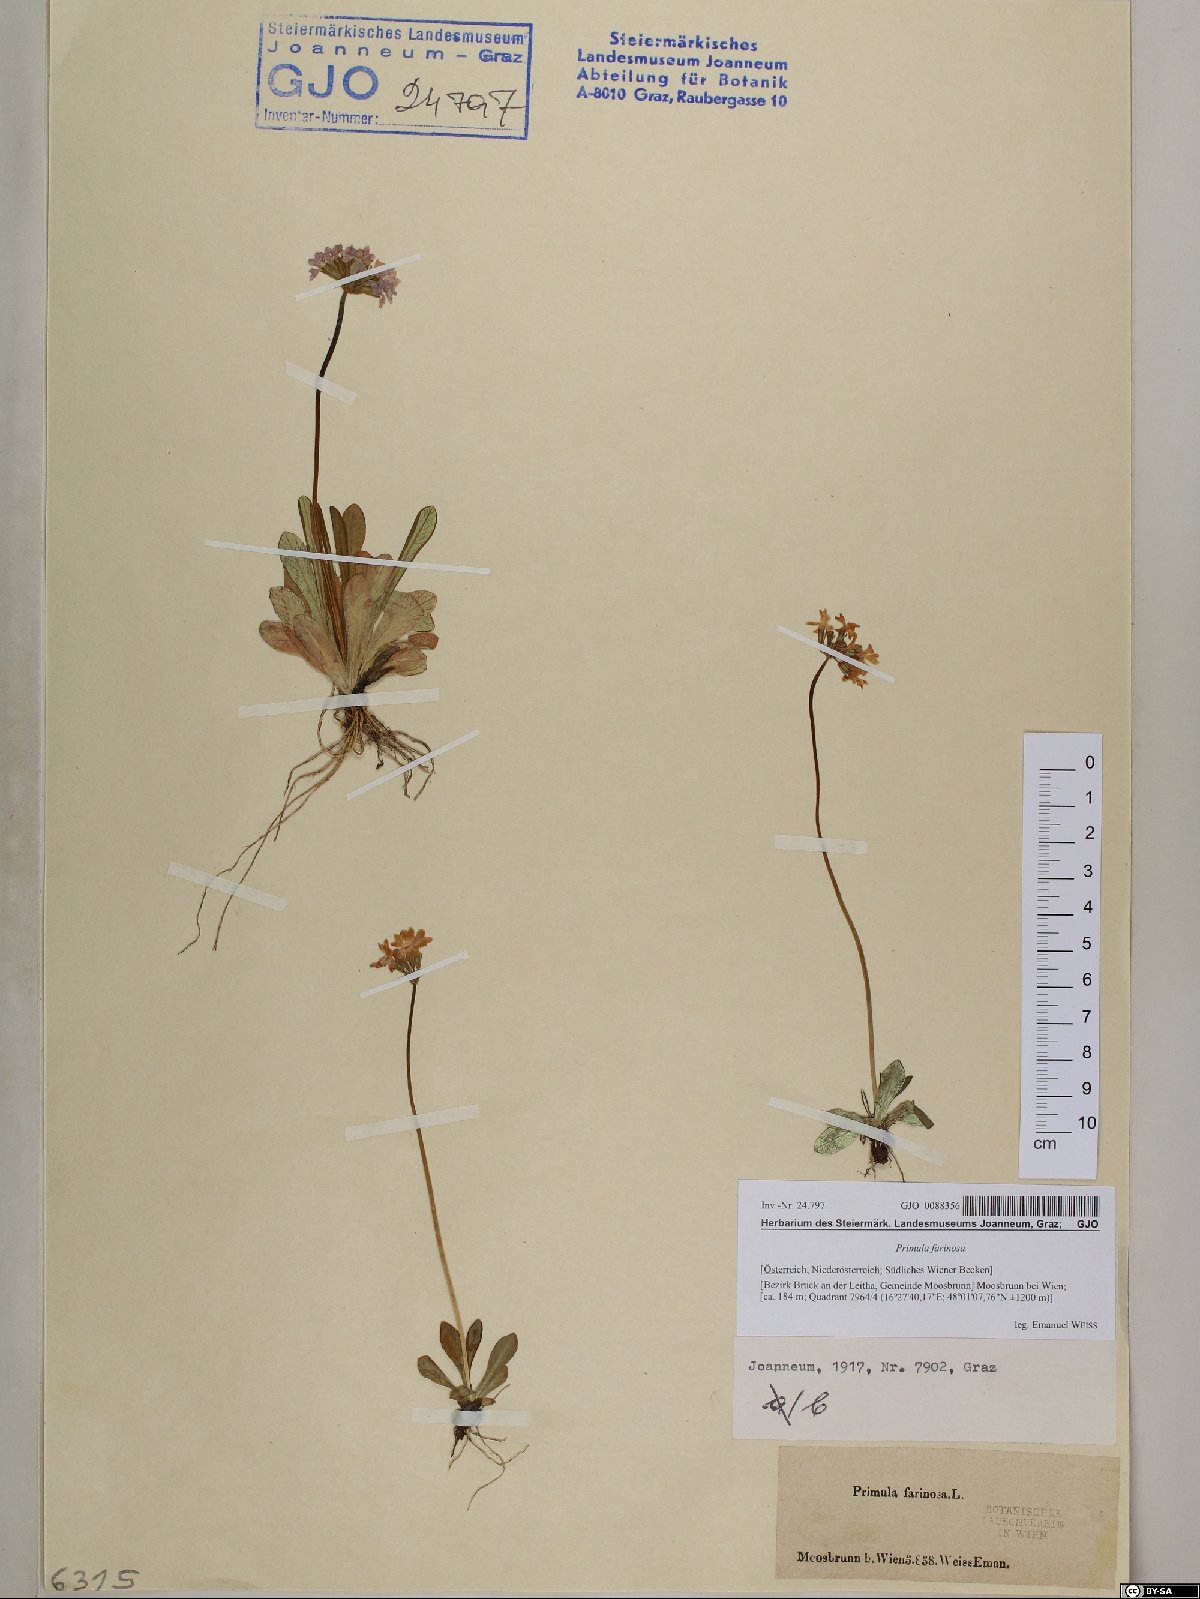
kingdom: Plantae
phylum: Tracheophyta
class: Magnoliopsida
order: Ericales
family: Primulaceae
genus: Primula
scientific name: Primula farinosa
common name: Bird's-eye primrose
